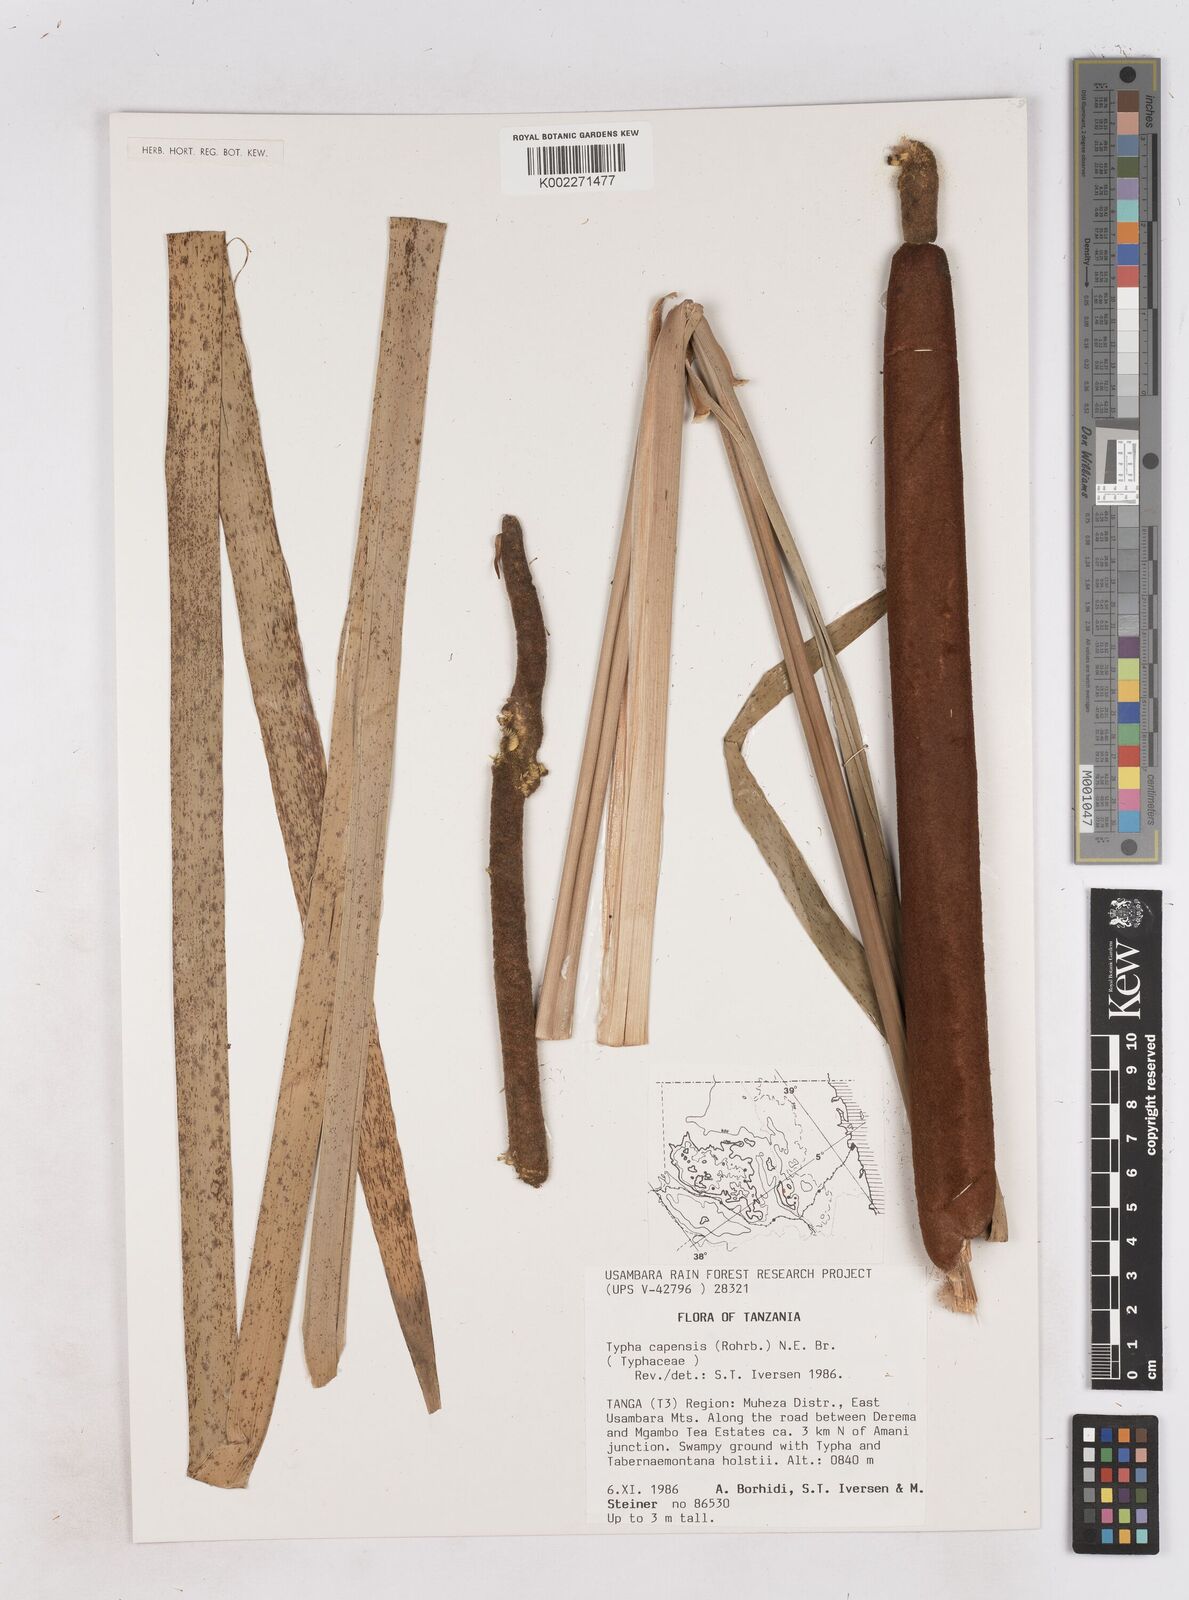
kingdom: Plantae
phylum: Tracheophyta
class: Liliopsida
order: Poales
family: Typhaceae
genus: Typha
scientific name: Typha domingensis
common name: Southern cattail
